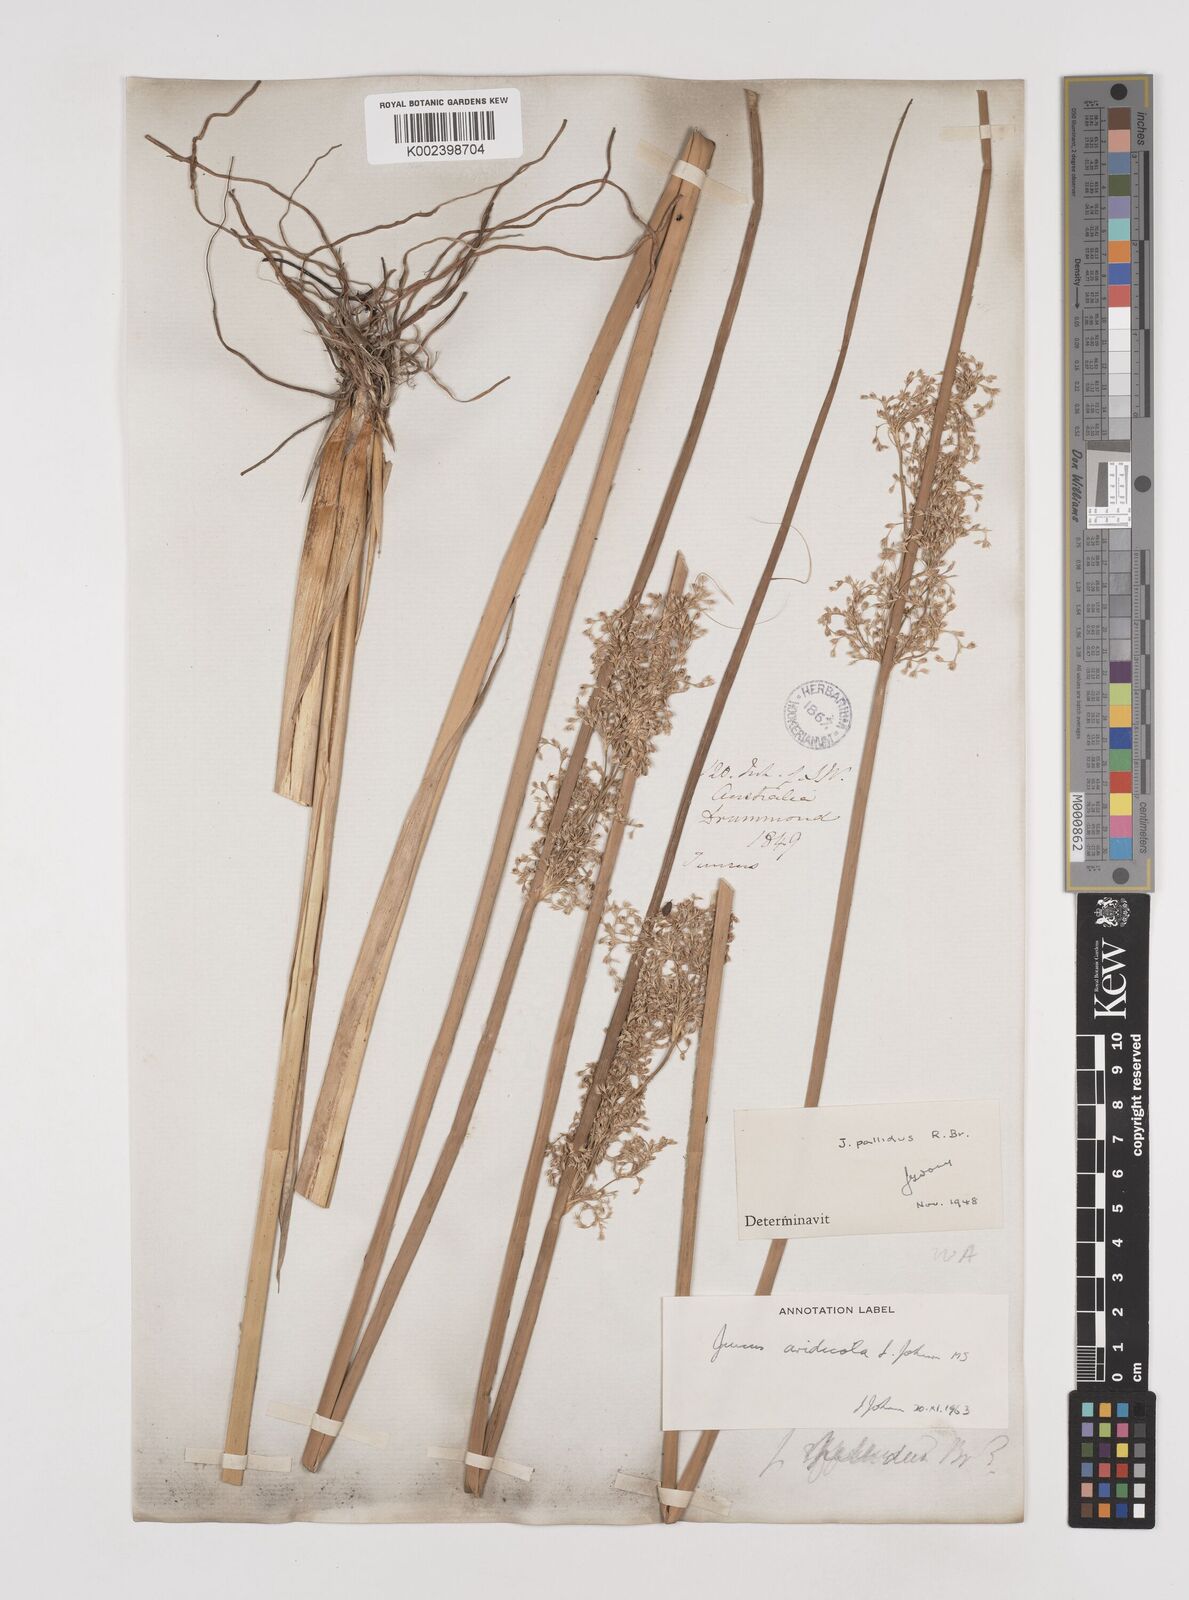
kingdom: Plantae
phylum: Tracheophyta
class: Liliopsida
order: Poales
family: Juncaceae
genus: Juncus
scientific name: Juncus aridicola
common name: Tussock rush
